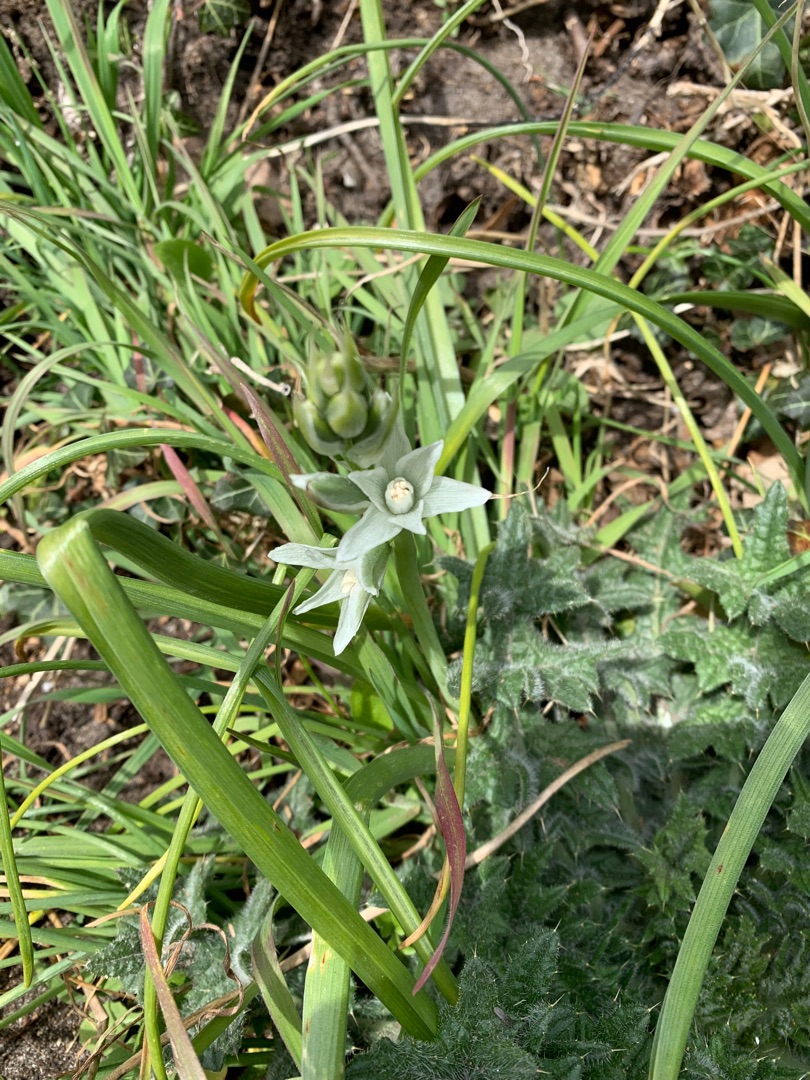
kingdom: Plantae
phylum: Tracheophyta
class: Liliopsida
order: Asparagales
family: Asparagaceae
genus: Ornithogalum
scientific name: Ornithogalum nutans
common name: Nikkende fuglemælk
